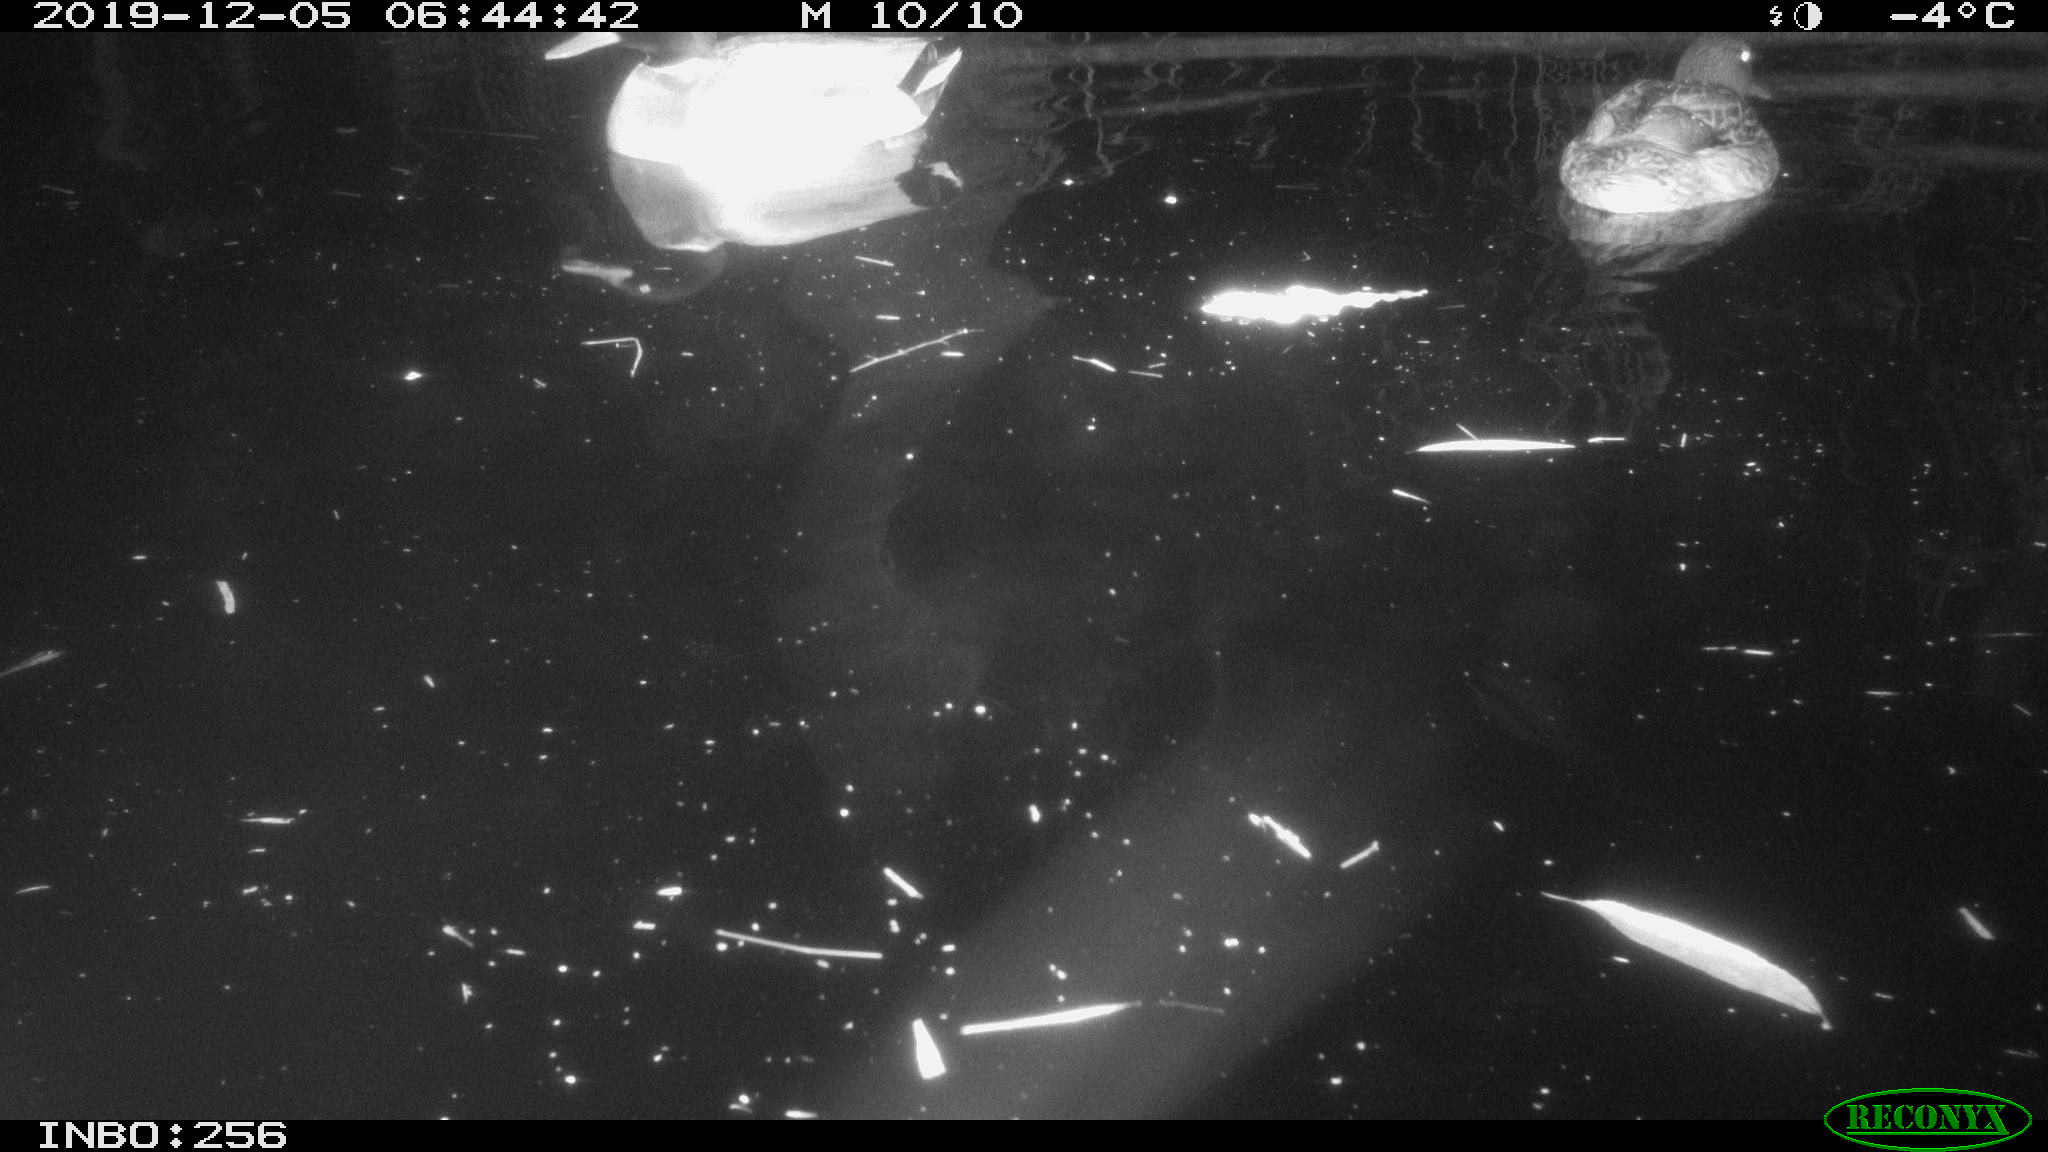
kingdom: Animalia
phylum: Chordata
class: Aves
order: Anseriformes
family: Anatidae
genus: Anas
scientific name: Anas platyrhynchos
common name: Mallard
